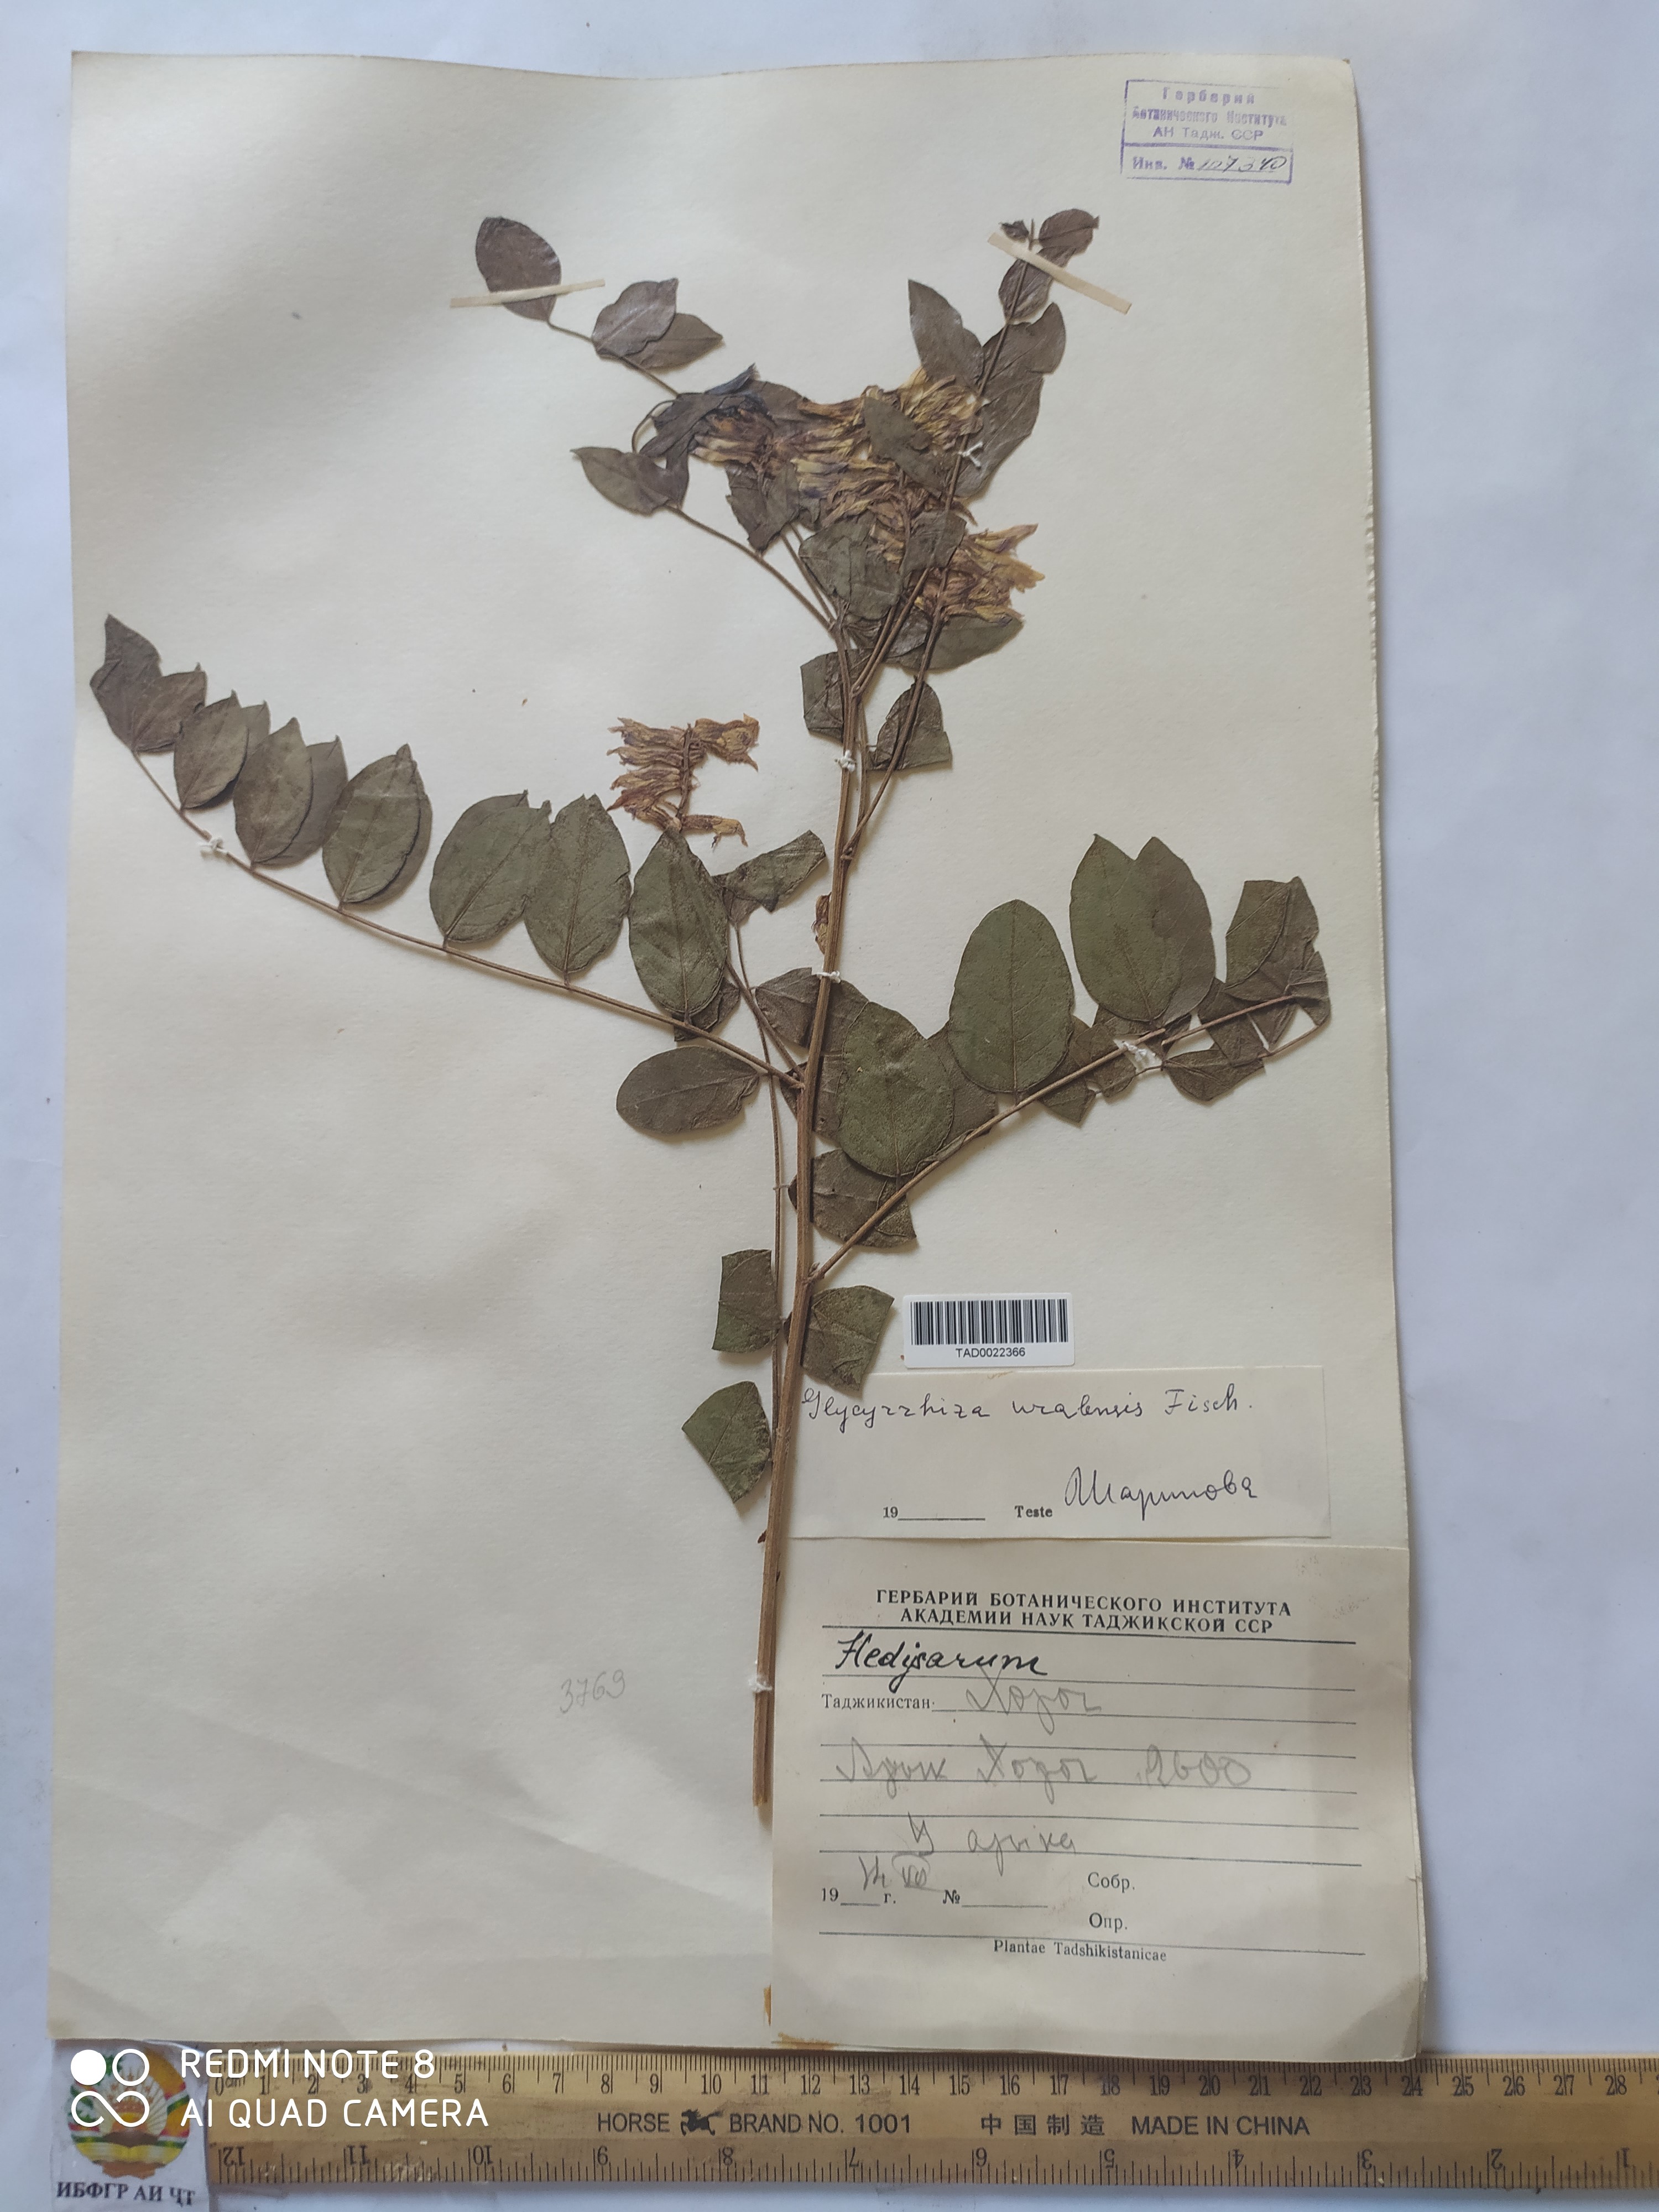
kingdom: Plantae
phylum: Tracheophyta
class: Magnoliopsida
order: Fabales
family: Fabaceae
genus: Glycyrrhiza
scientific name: Glycyrrhiza uralensis
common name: Chinese licorice
